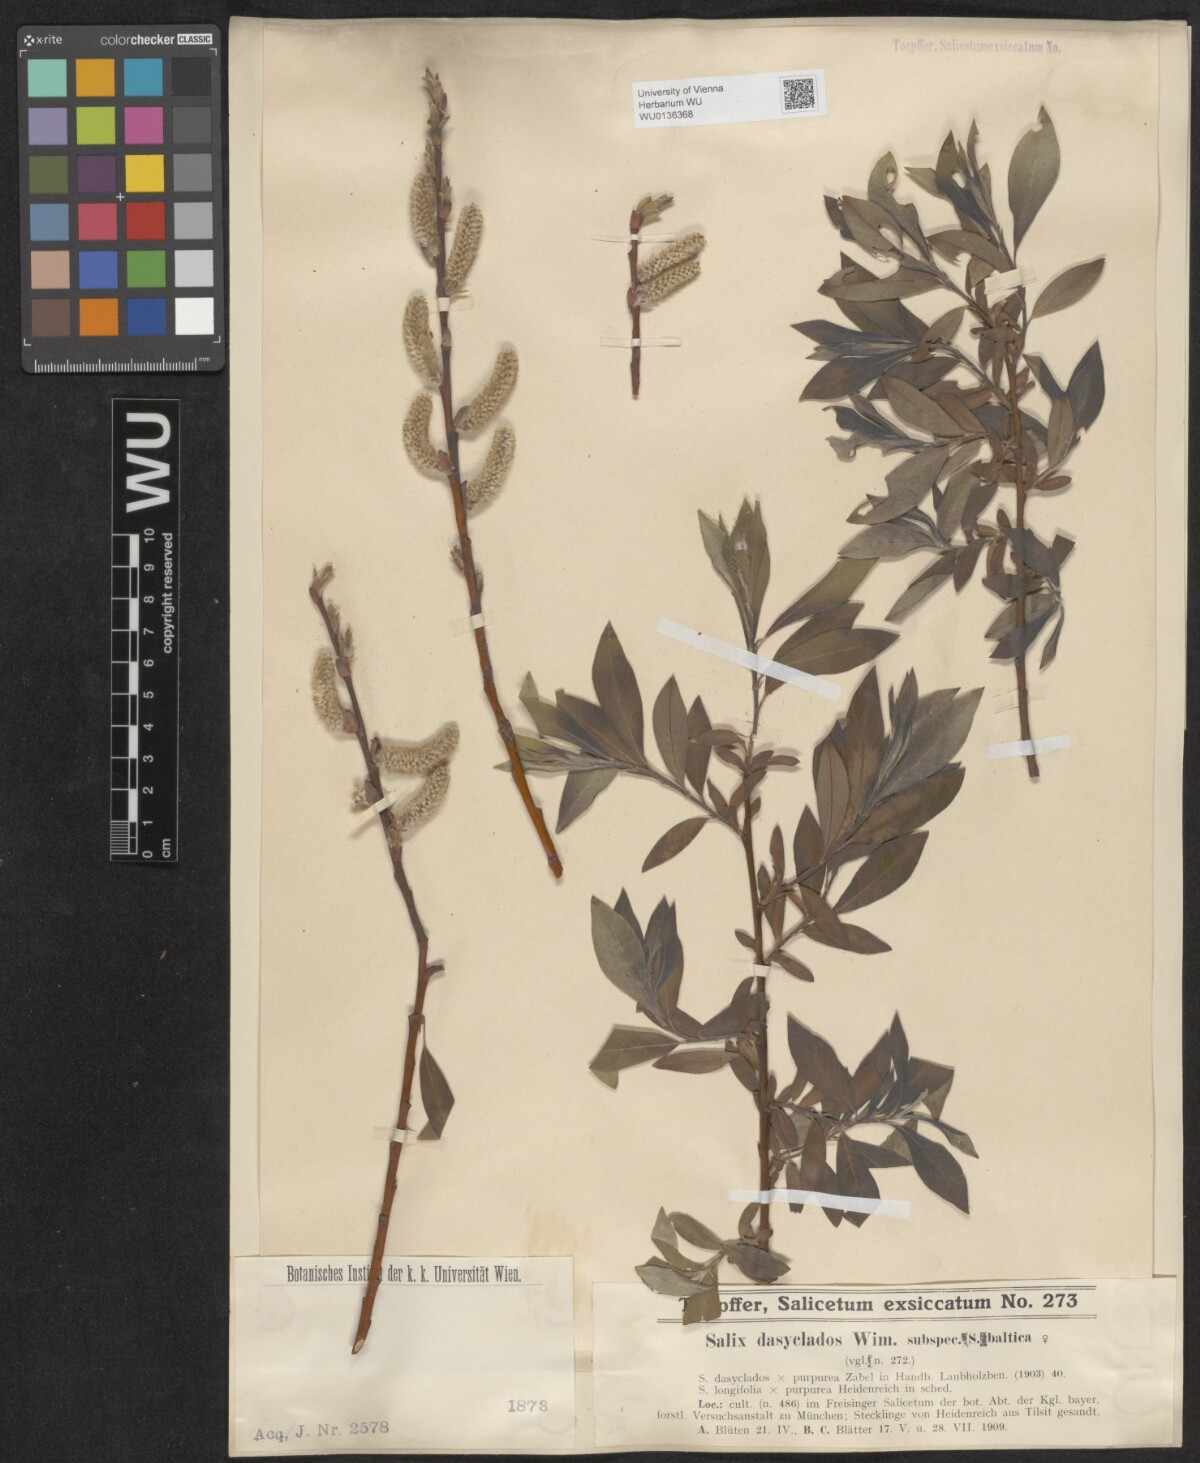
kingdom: Plantae
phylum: Tracheophyta
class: Magnoliopsida
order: Malpighiales
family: Salicaceae
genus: Salix
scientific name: Salix gmelinii
